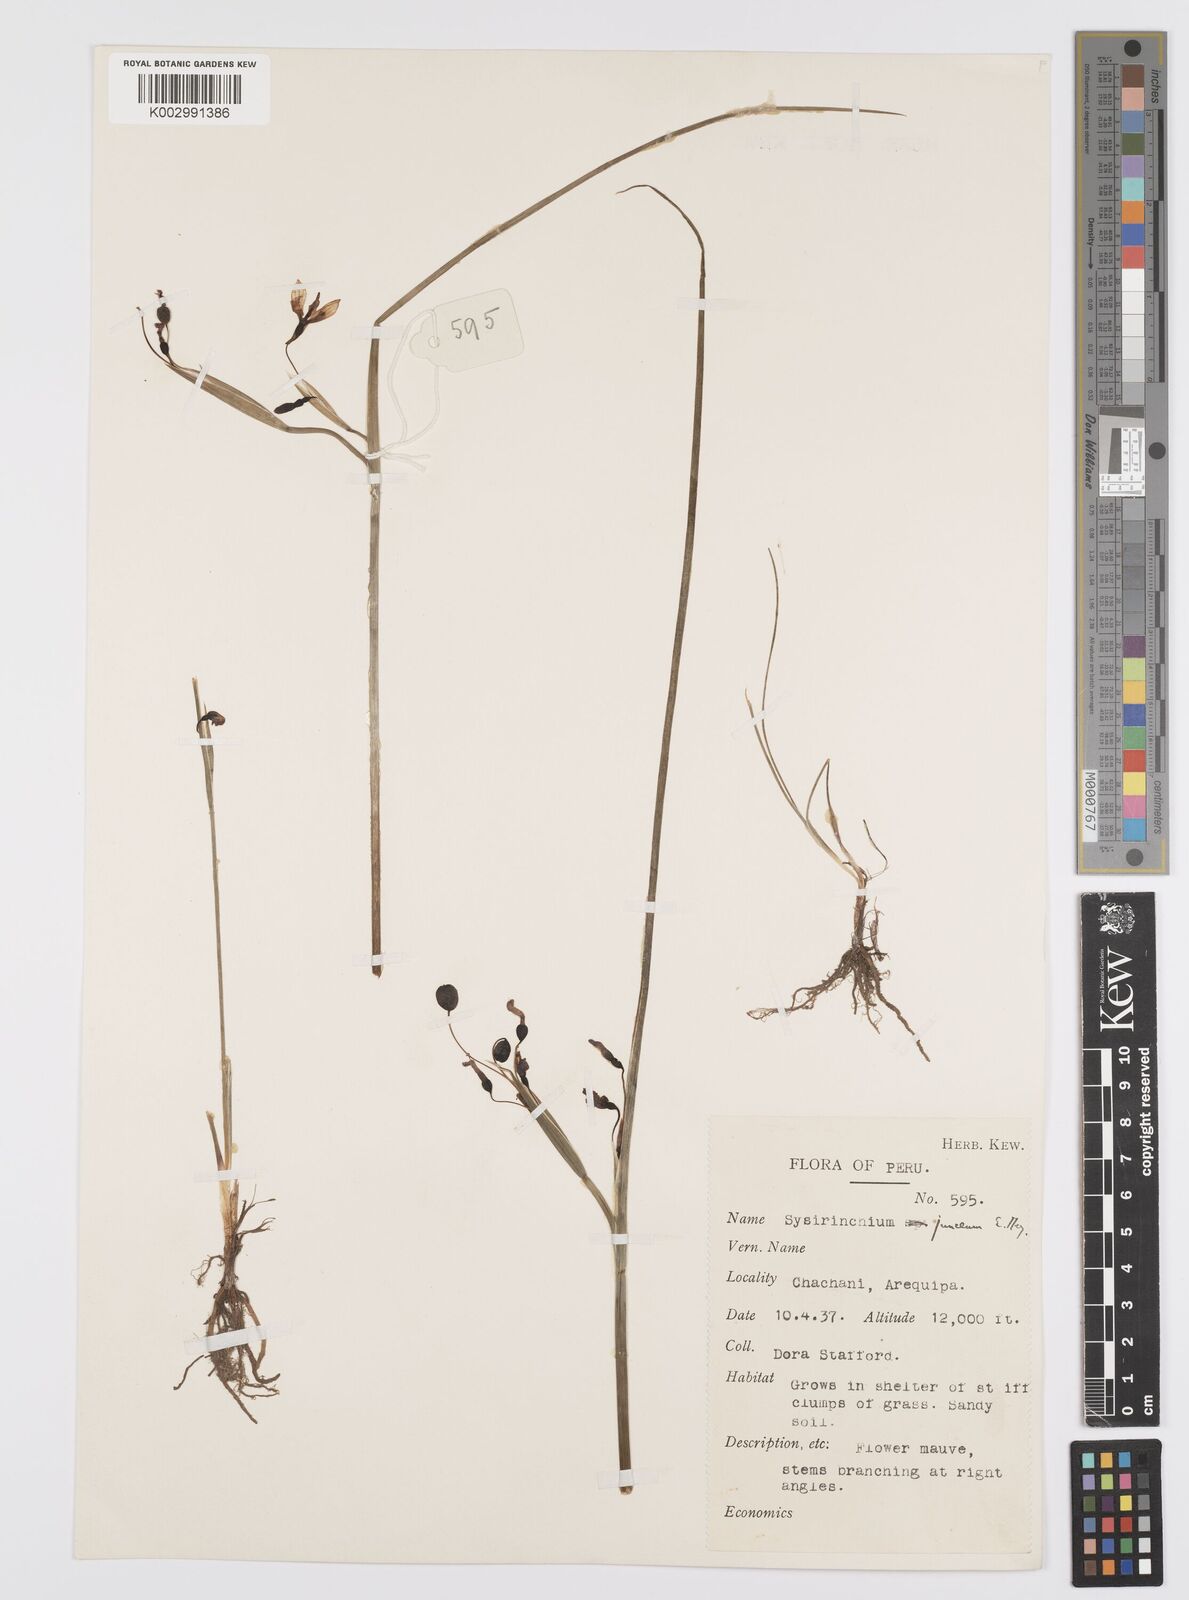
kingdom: Plantae
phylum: Tracheophyta
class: Liliopsida
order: Asparagales
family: Iridaceae
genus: Olsynium
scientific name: Olsynium junceum
